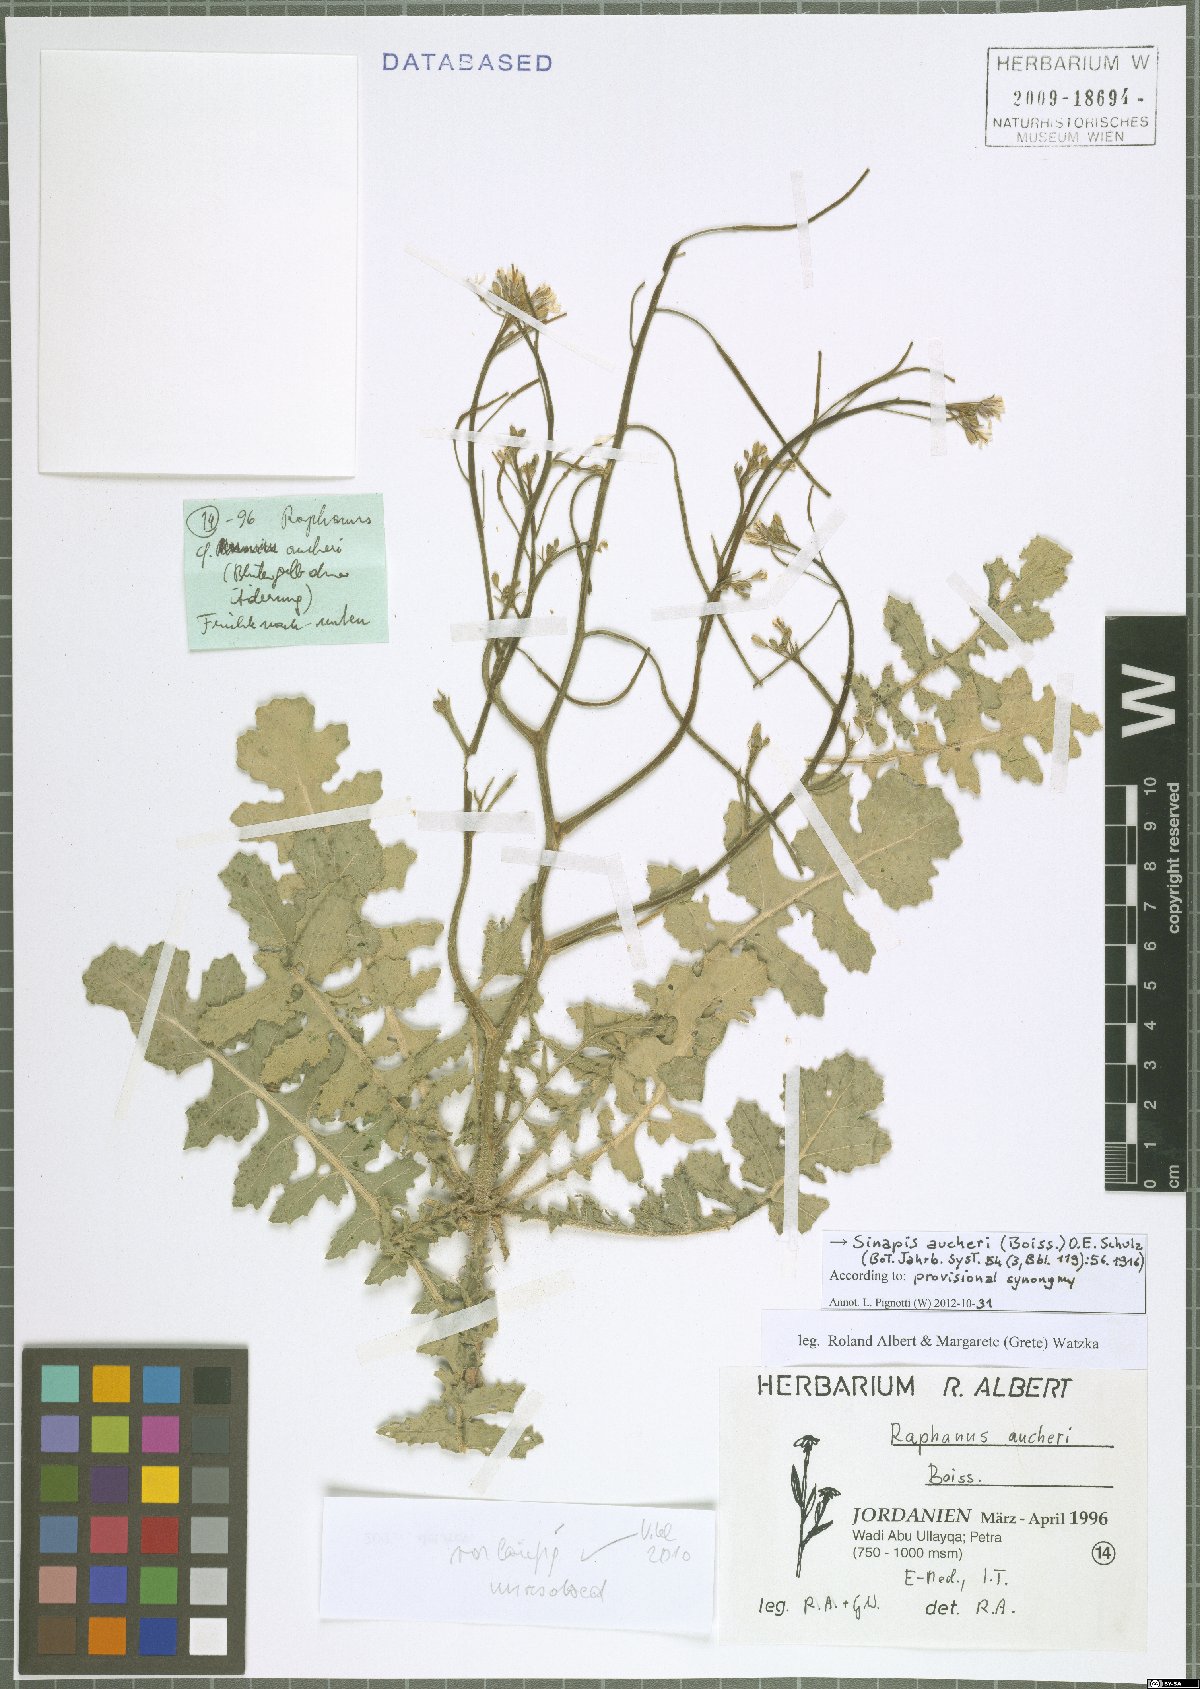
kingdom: Plantae
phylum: Tracheophyta
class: Magnoliopsida
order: Brassicales
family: Brassicaceae
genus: Brassica
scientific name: Brassica tournefortii
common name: Pale cabbage
